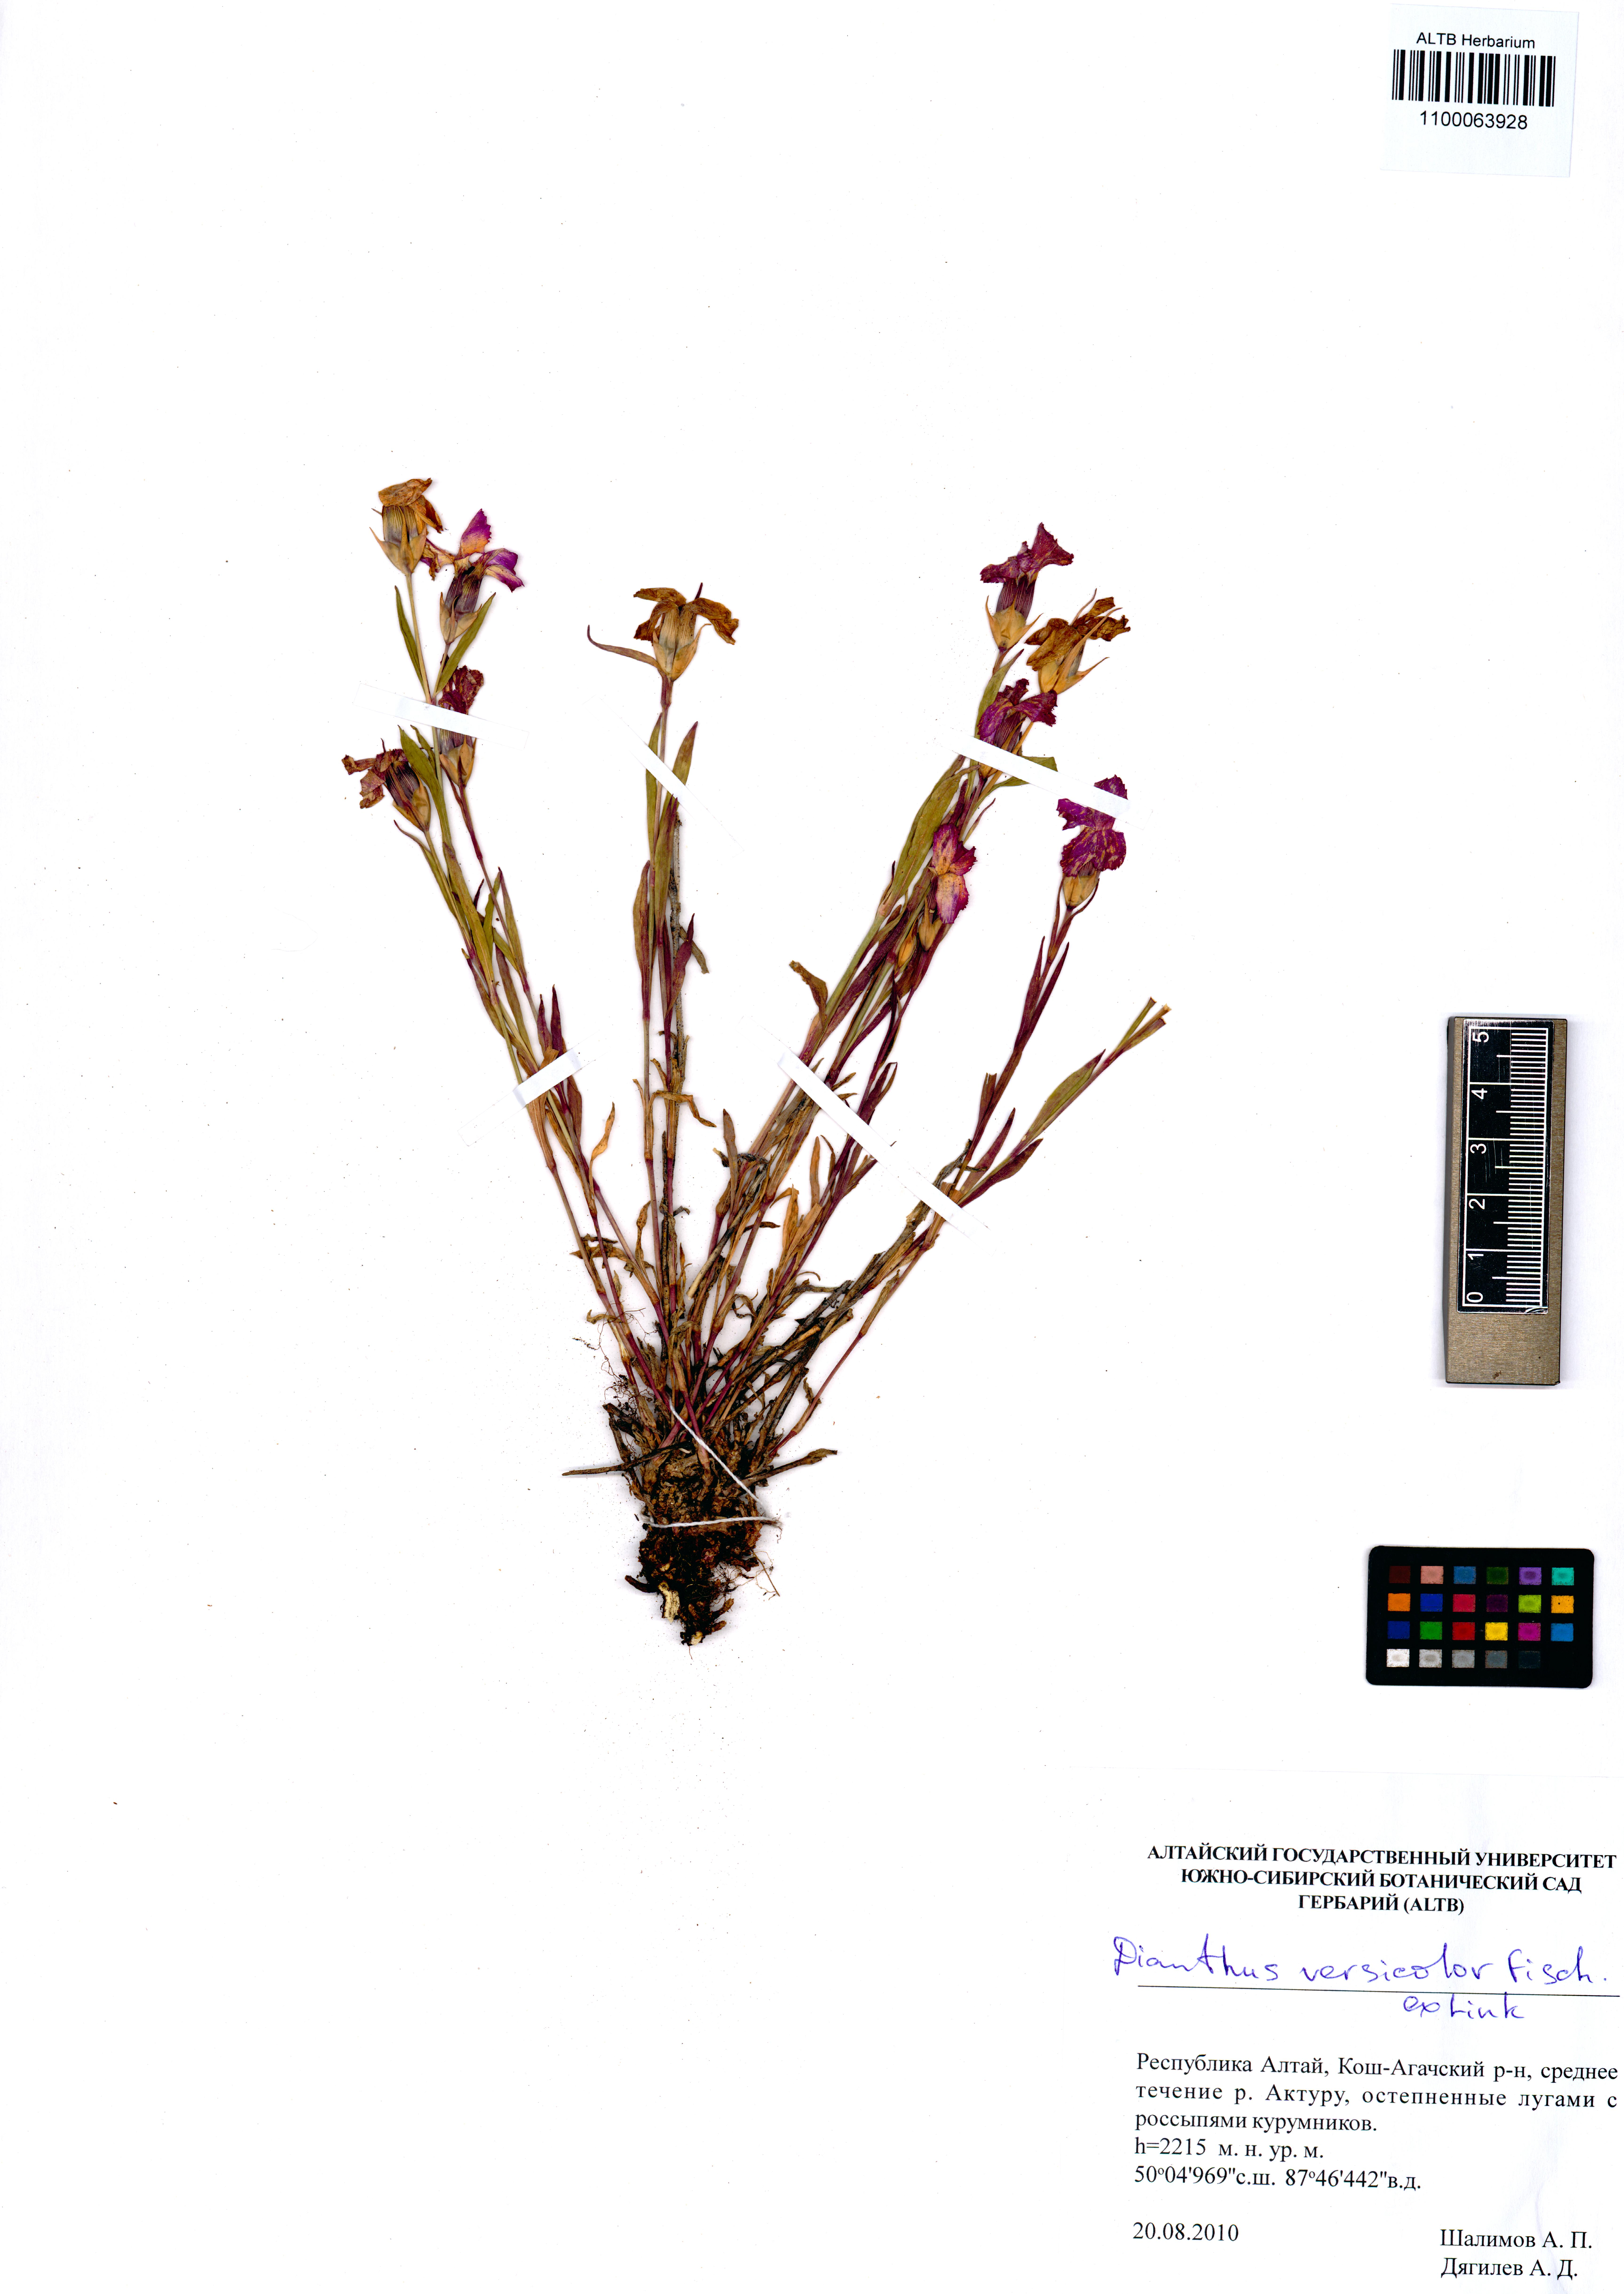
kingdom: Plantae
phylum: Tracheophyta
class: Magnoliopsida
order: Caryophyllales
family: Caryophyllaceae
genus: Dianthus
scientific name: Dianthus chinensis
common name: Rainbow pink
